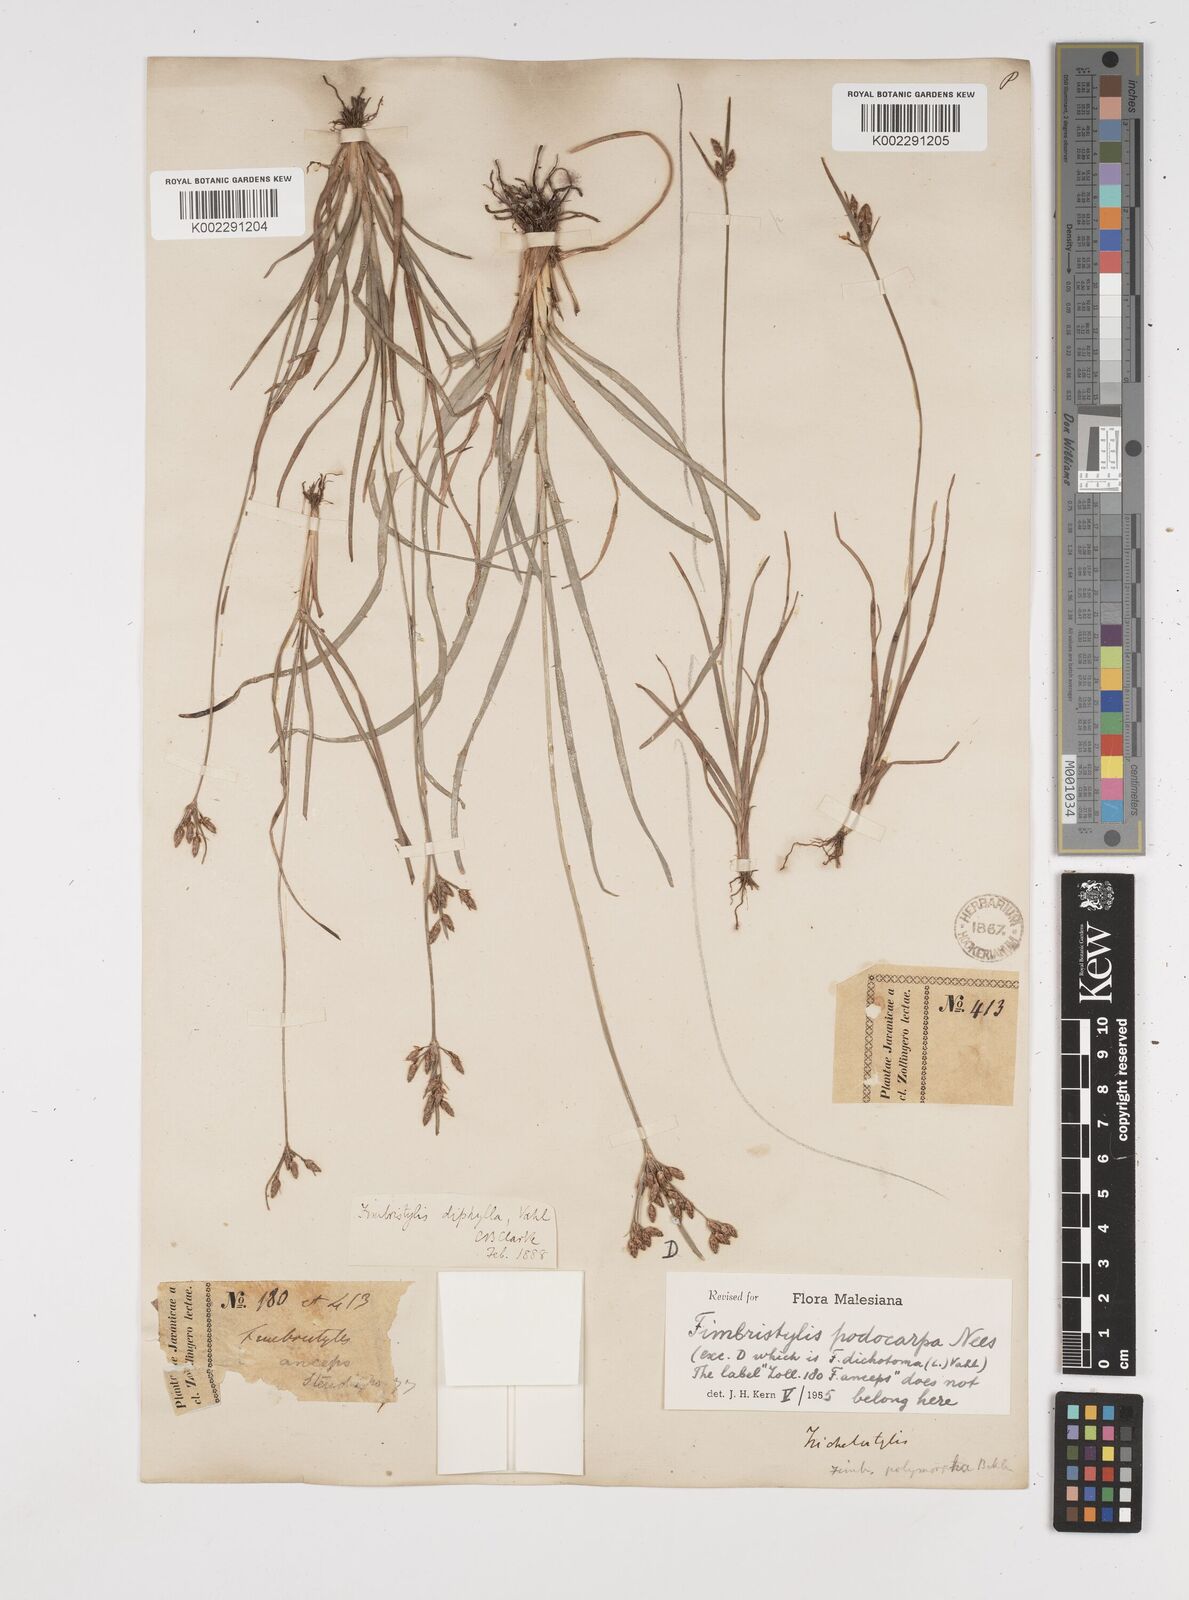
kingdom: Plantae
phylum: Tracheophyta
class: Liliopsida
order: Poales
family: Cyperaceae
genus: Fimbristylis
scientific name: Fimbristylis dichotoma
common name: Forked fimbry
